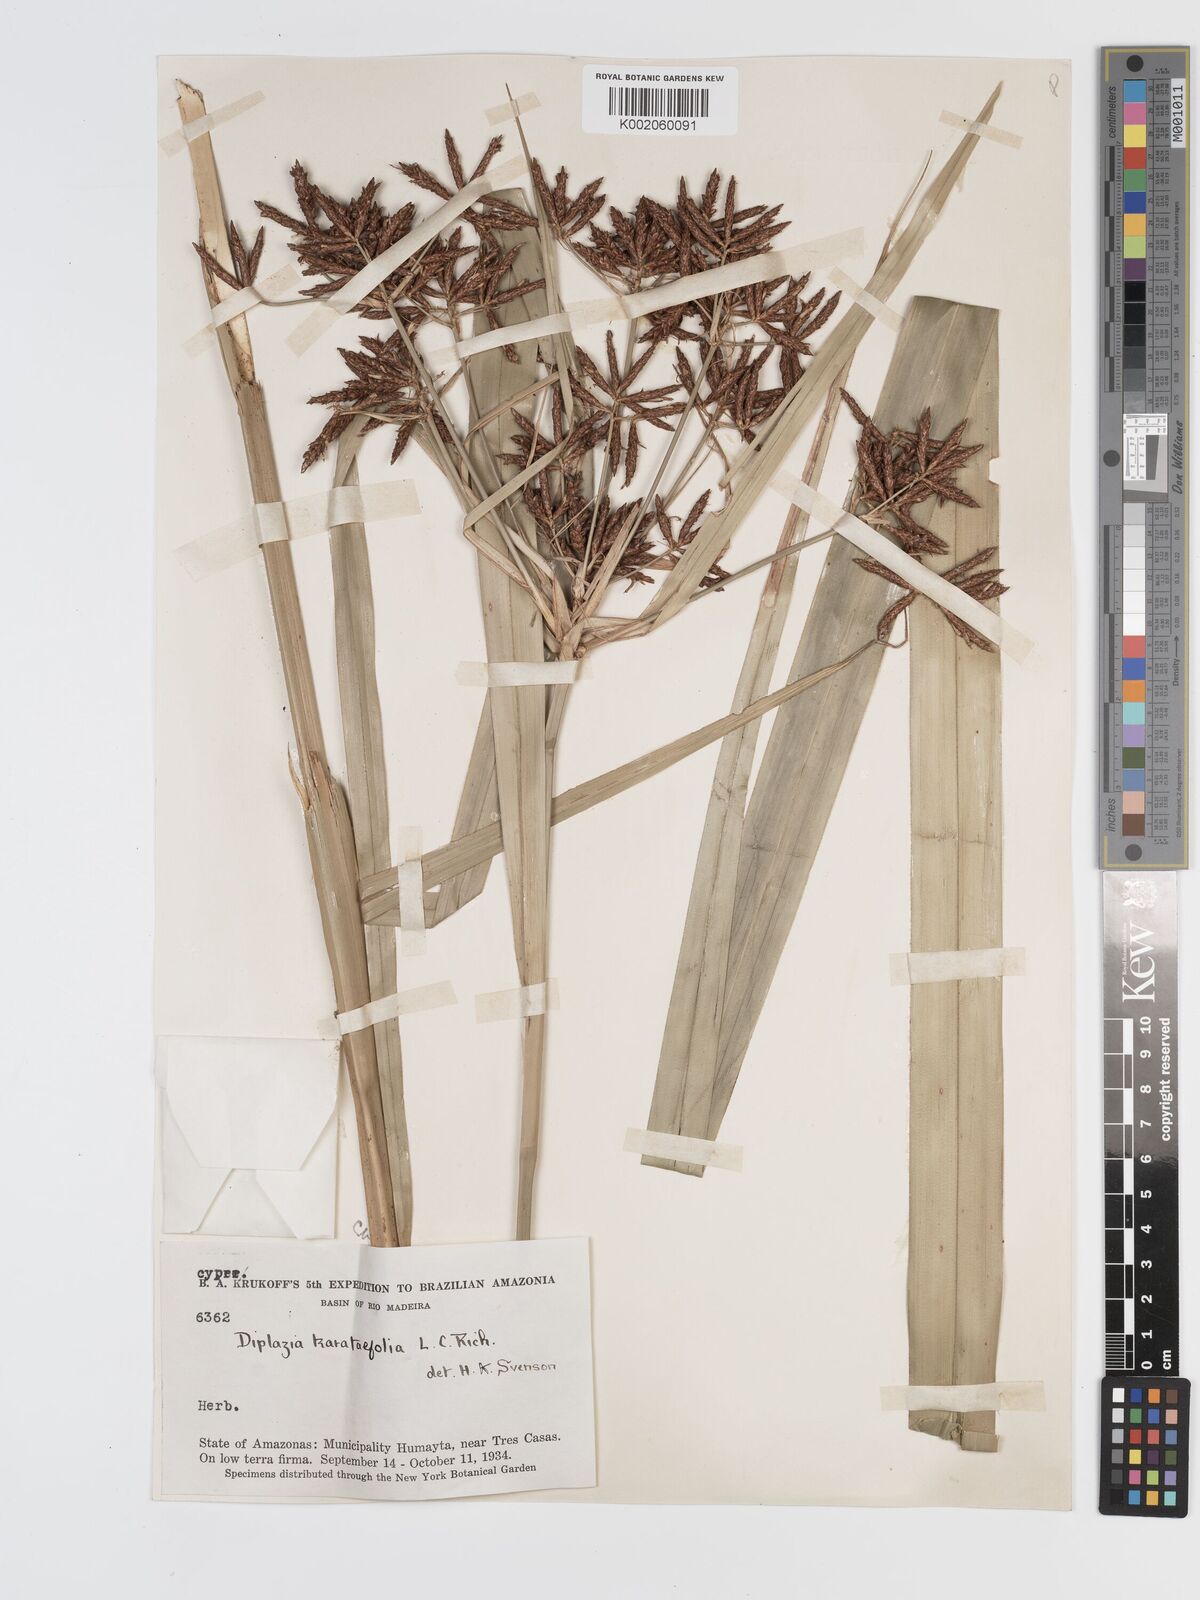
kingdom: Plantae
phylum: Tracheophyta
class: Liliopsida
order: Poales
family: Cyperaceae
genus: Diplasia
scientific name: Diplasia karatifolia
